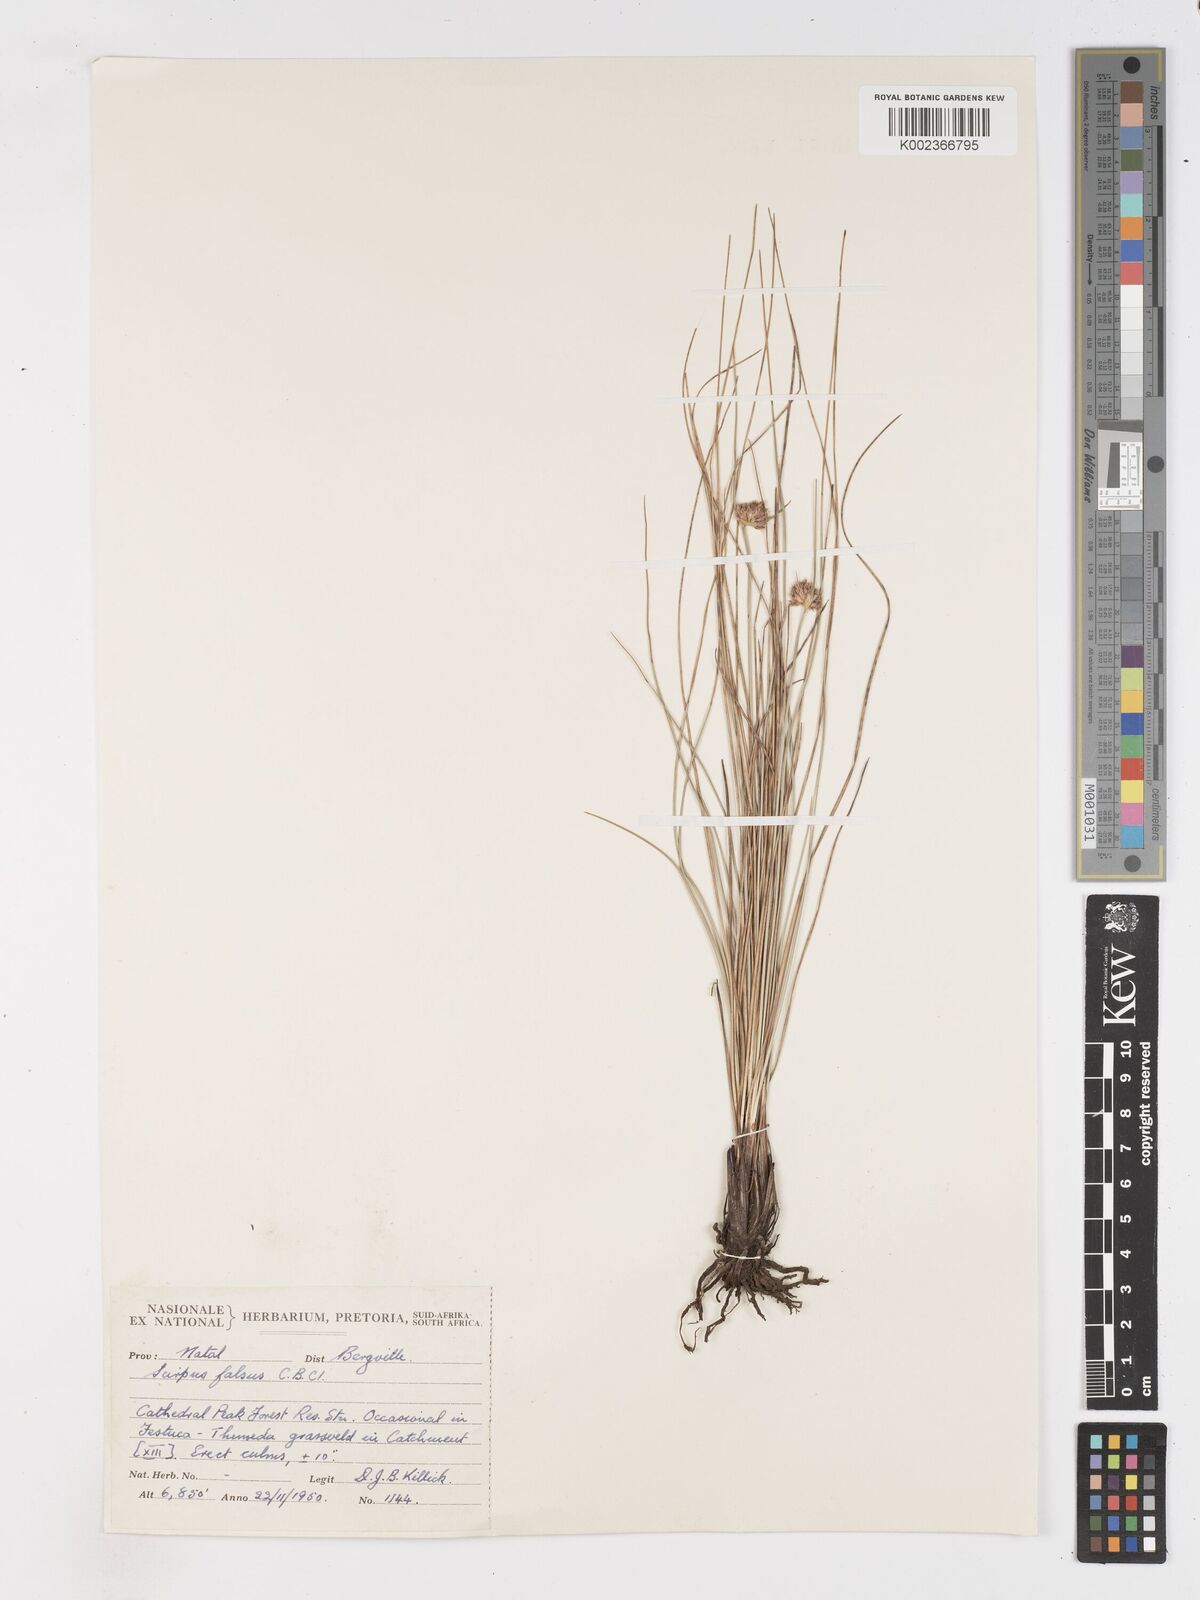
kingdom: Plantae
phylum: Tracheophyta
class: Liliopsida
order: Poales
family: Cyperaceae
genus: Dracoscirpoides
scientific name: Dracoscirpoides falsa
